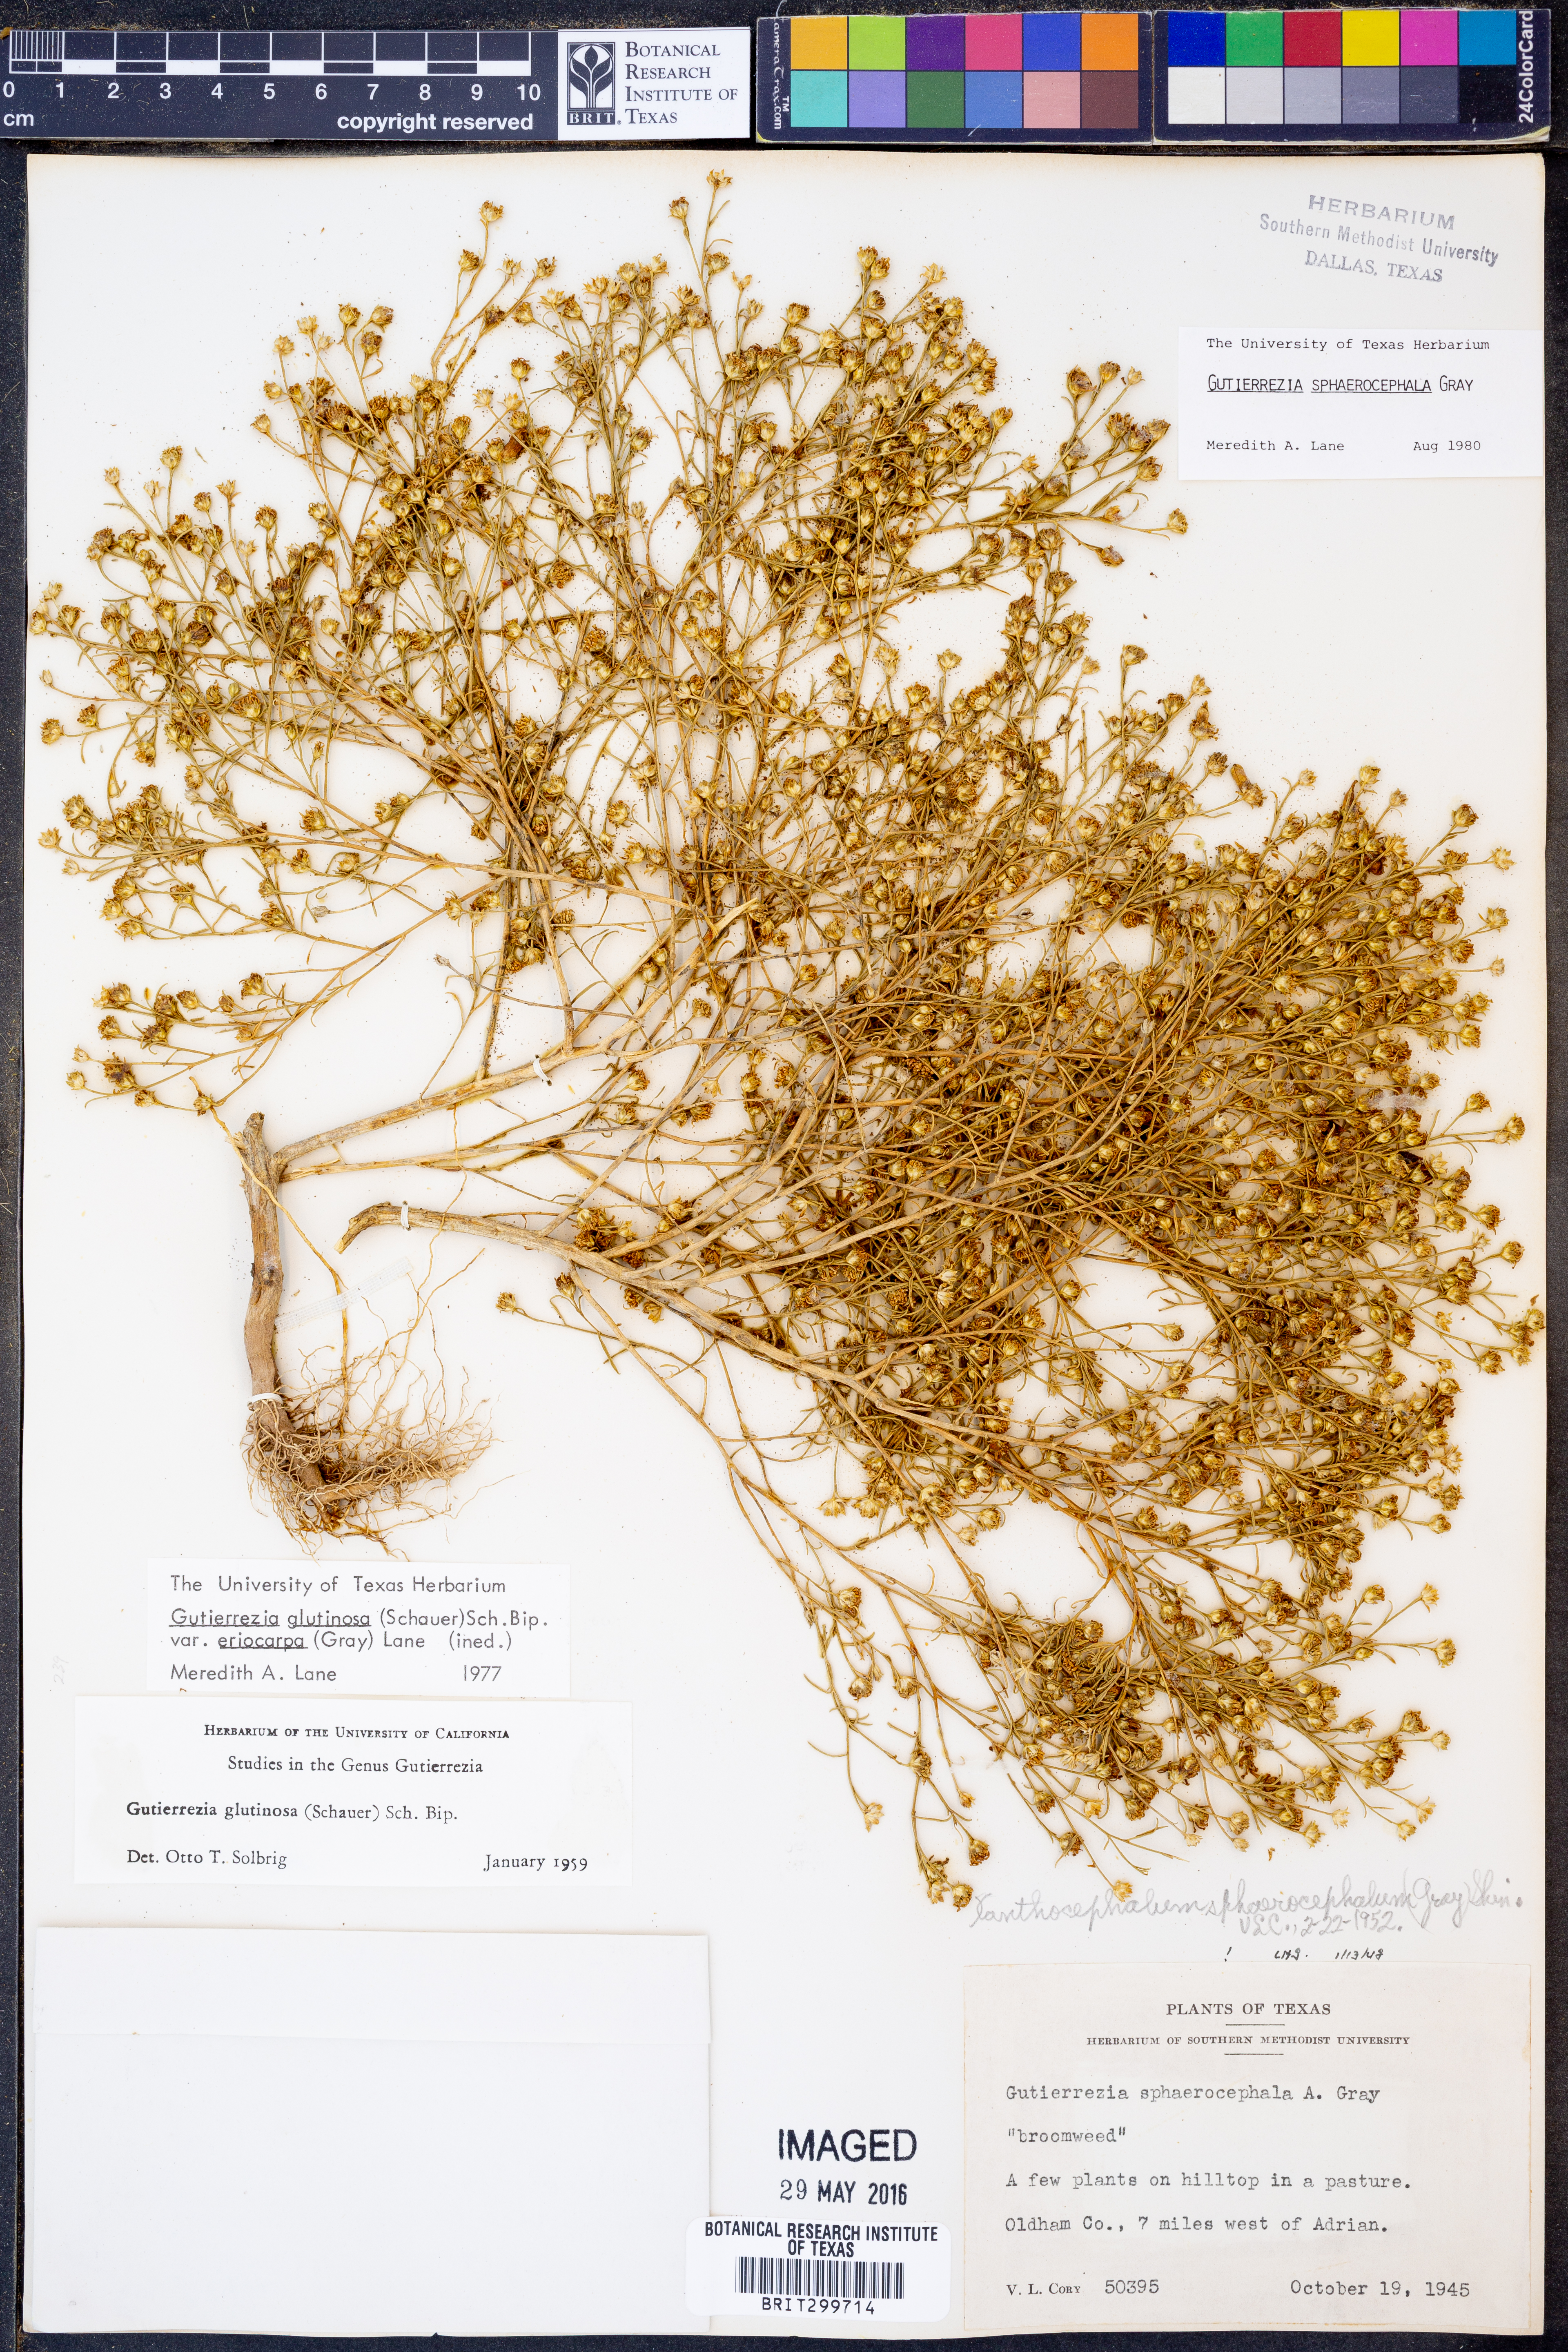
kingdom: Plantae
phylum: Tracheophyta
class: Magnoliopsida
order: Asterales
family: Asteraceae
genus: Gutierrezia
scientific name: Gutierrezia sphaerocephala
